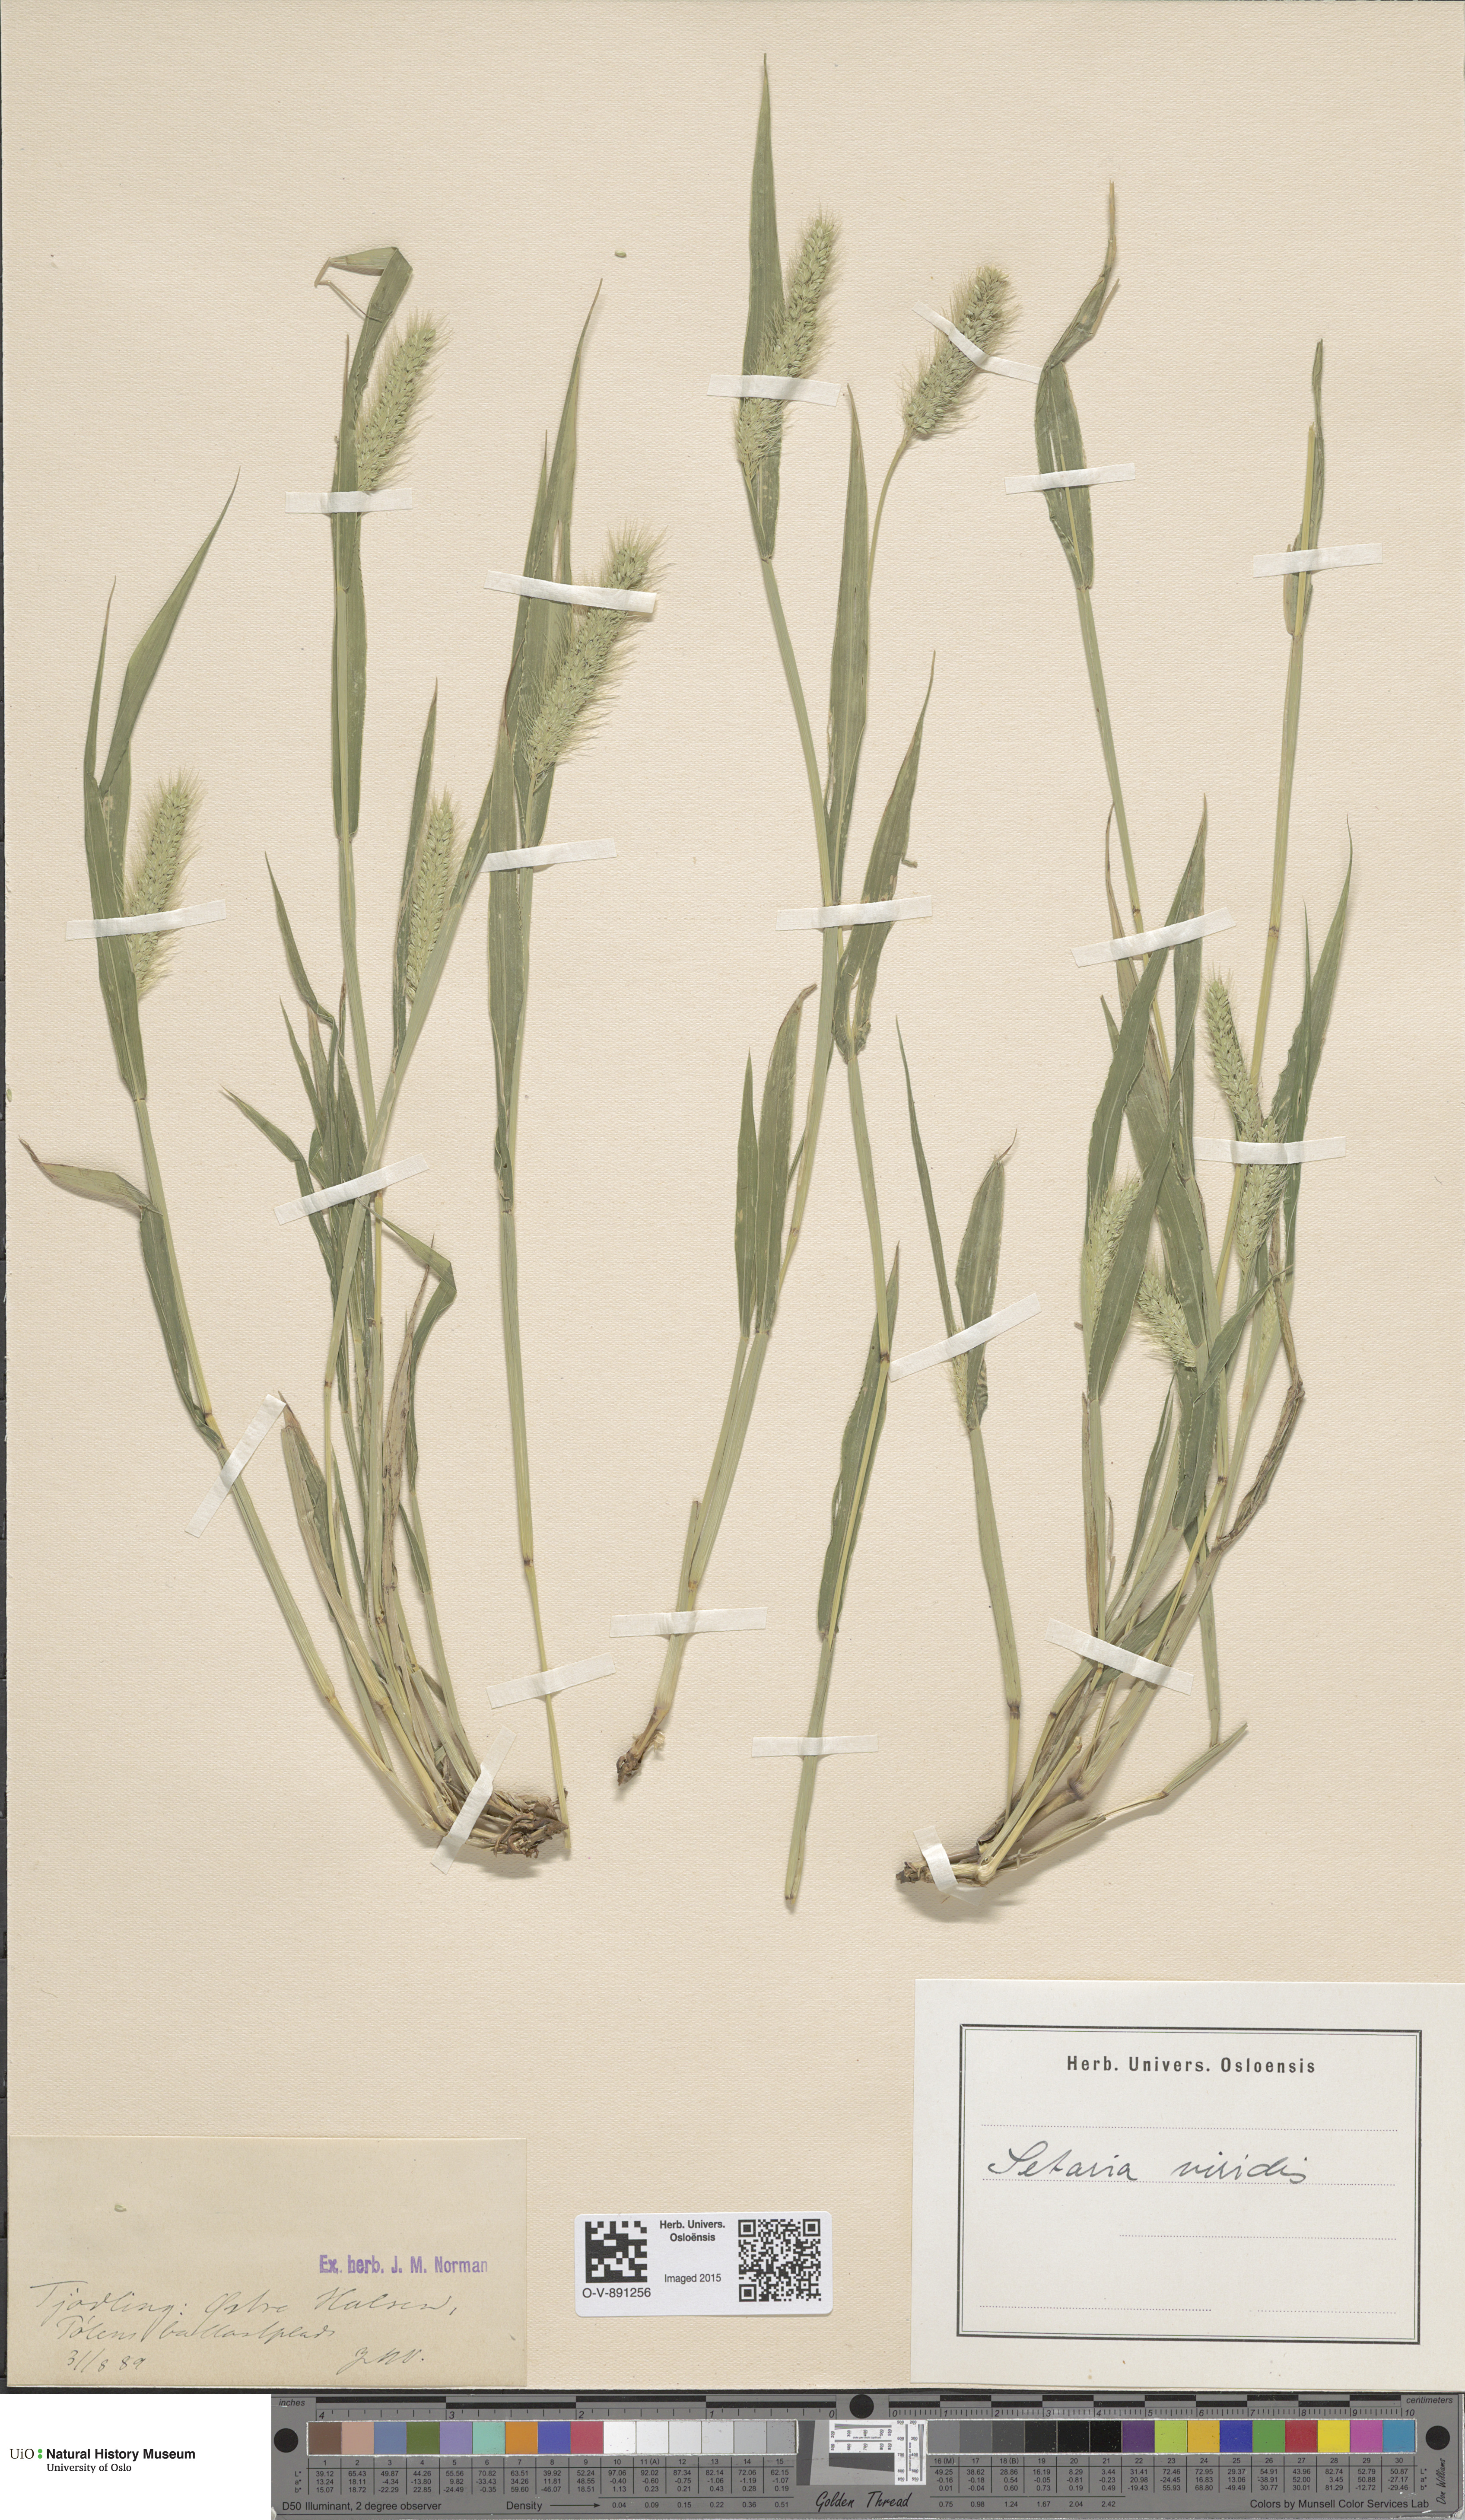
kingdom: Plantae
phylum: Tracheophyta
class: Liliopsida
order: Poales
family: Poaceae
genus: Setaria
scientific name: Setaria viridis
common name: Green bristlegrass
